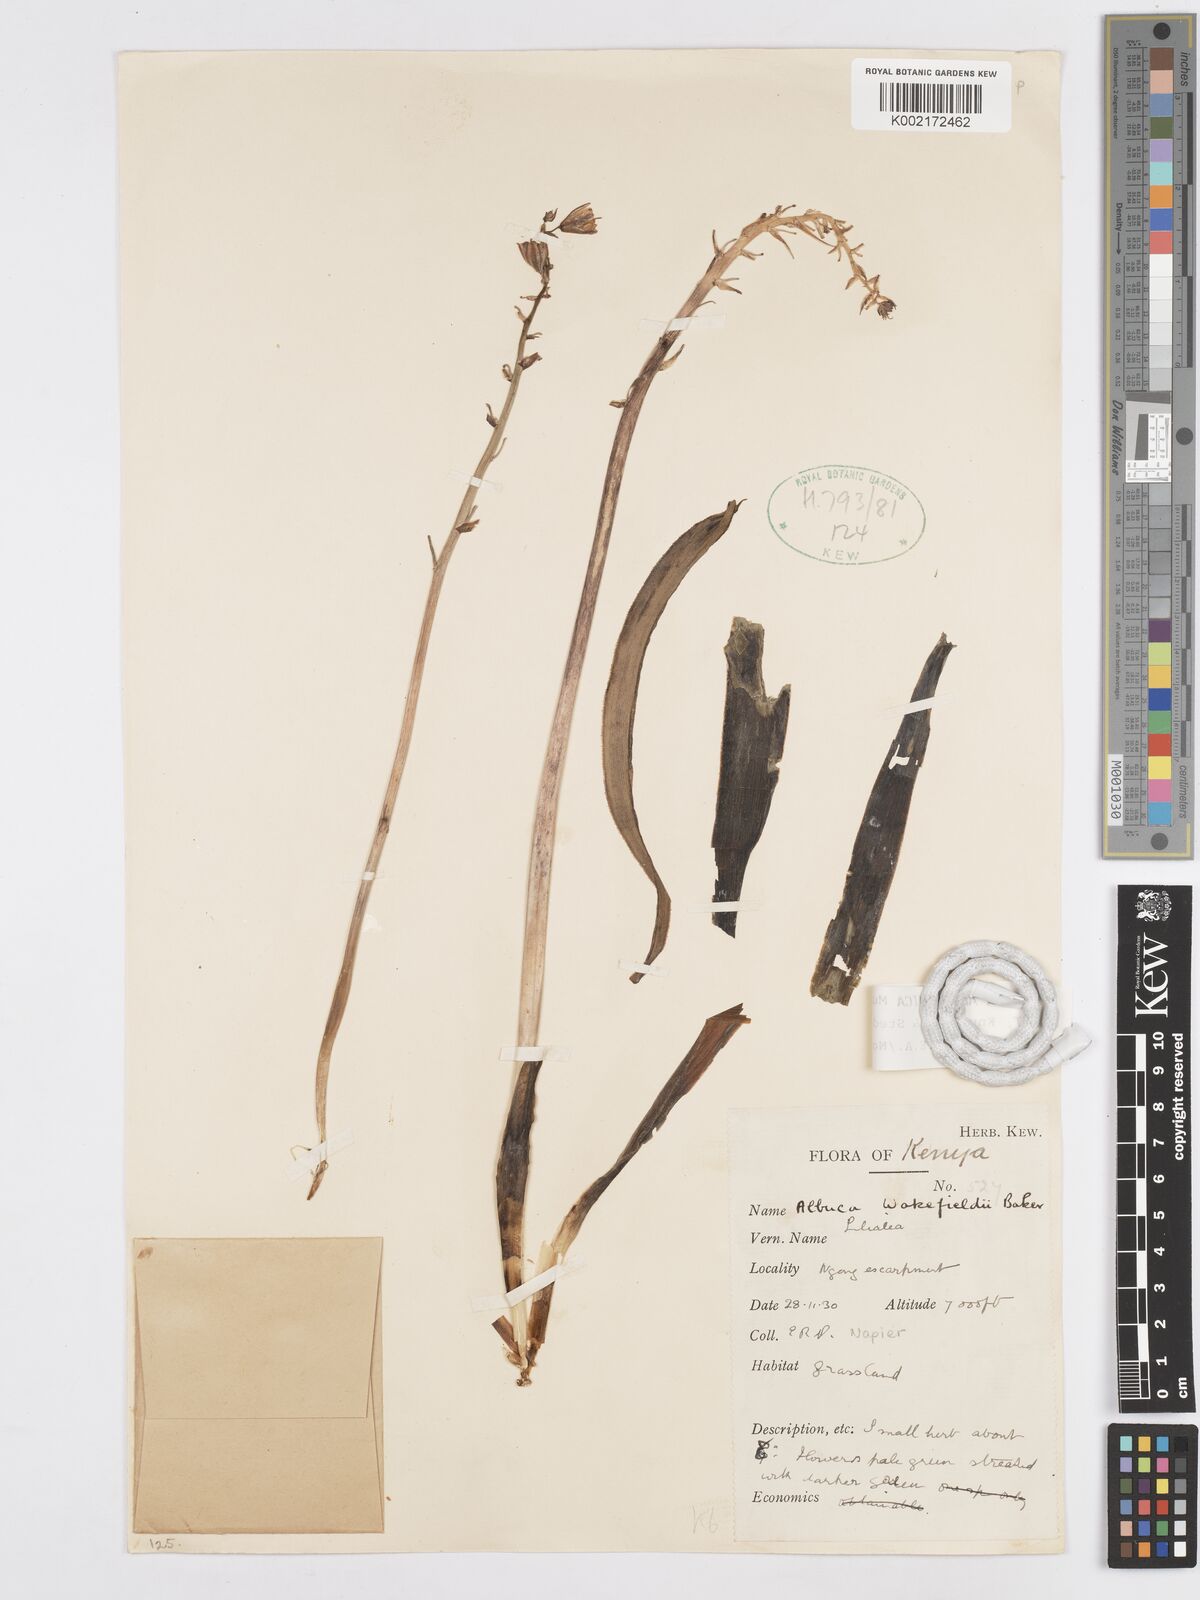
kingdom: Plantae
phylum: Tracheophyta
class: Liliopsida
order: Asparagales
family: Asparagaceae
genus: Albuca
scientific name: Albuca abyssinica
